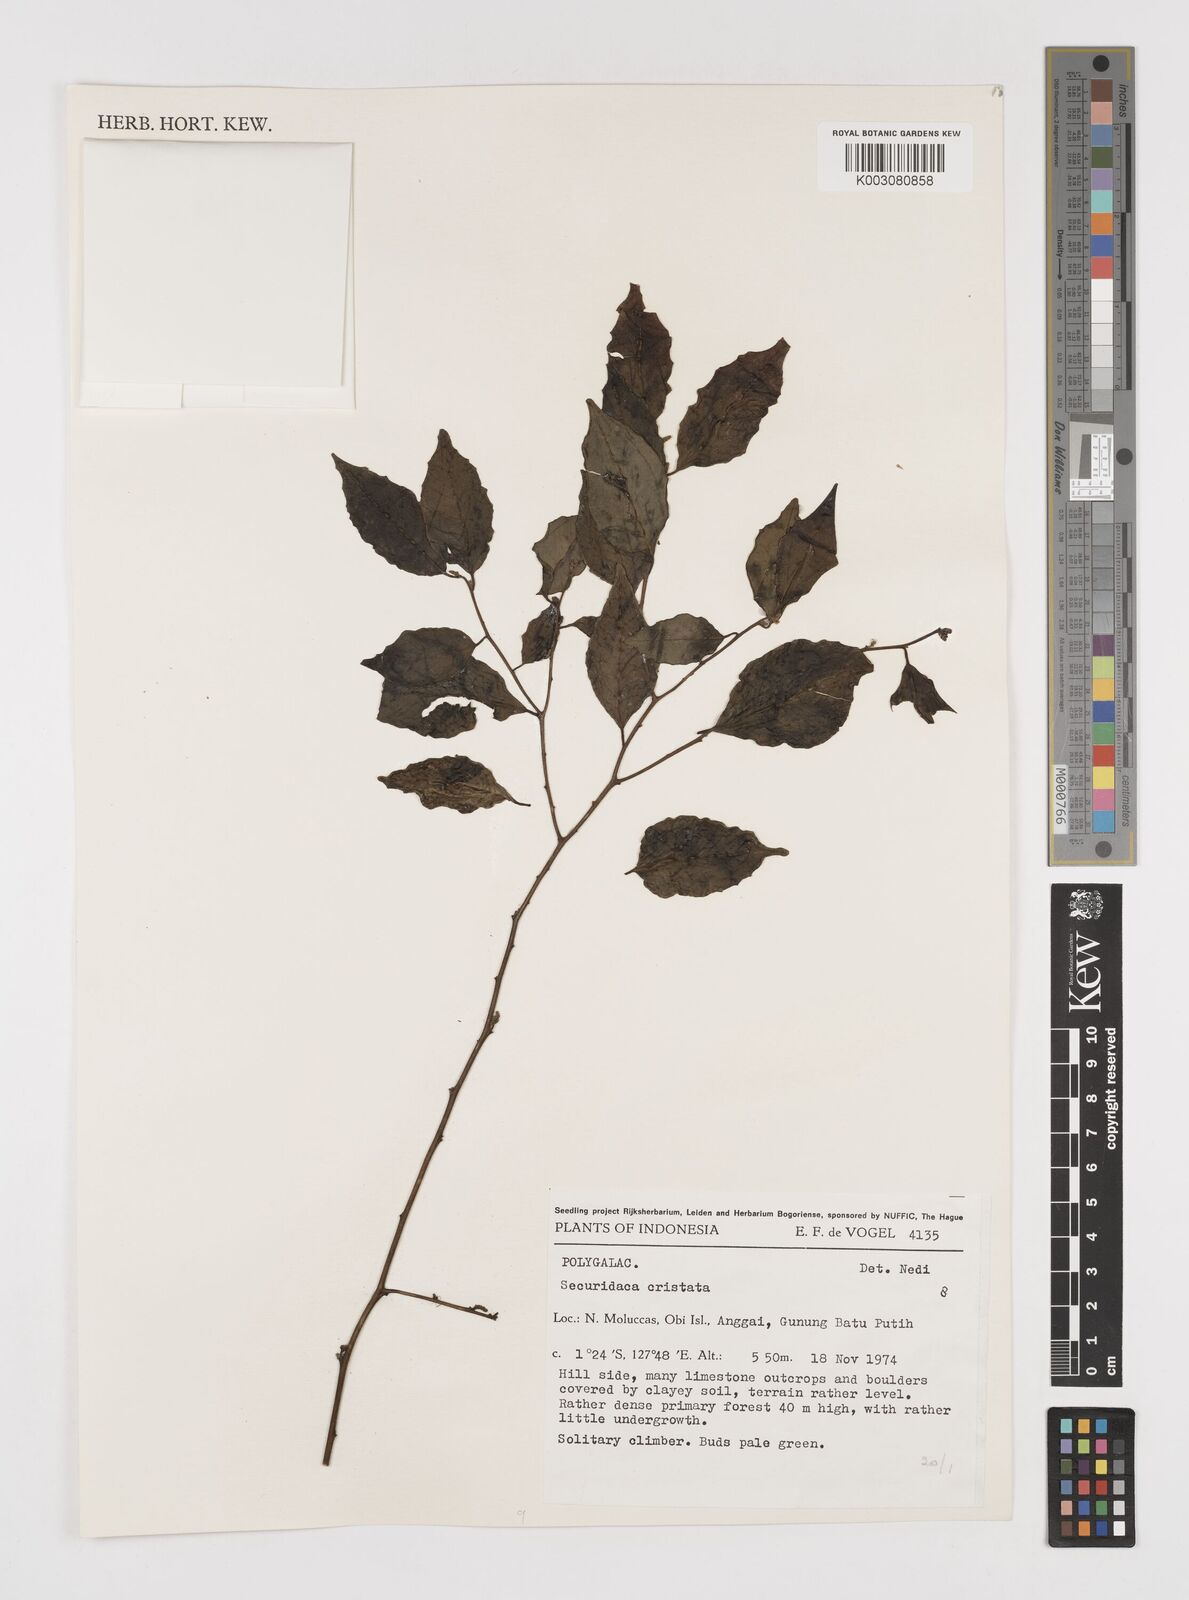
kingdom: Plantae
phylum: Tracheophyta
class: Magnoliopsida
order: Fabales
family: Polygalaceae
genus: Securidaca
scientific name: Securidaca
